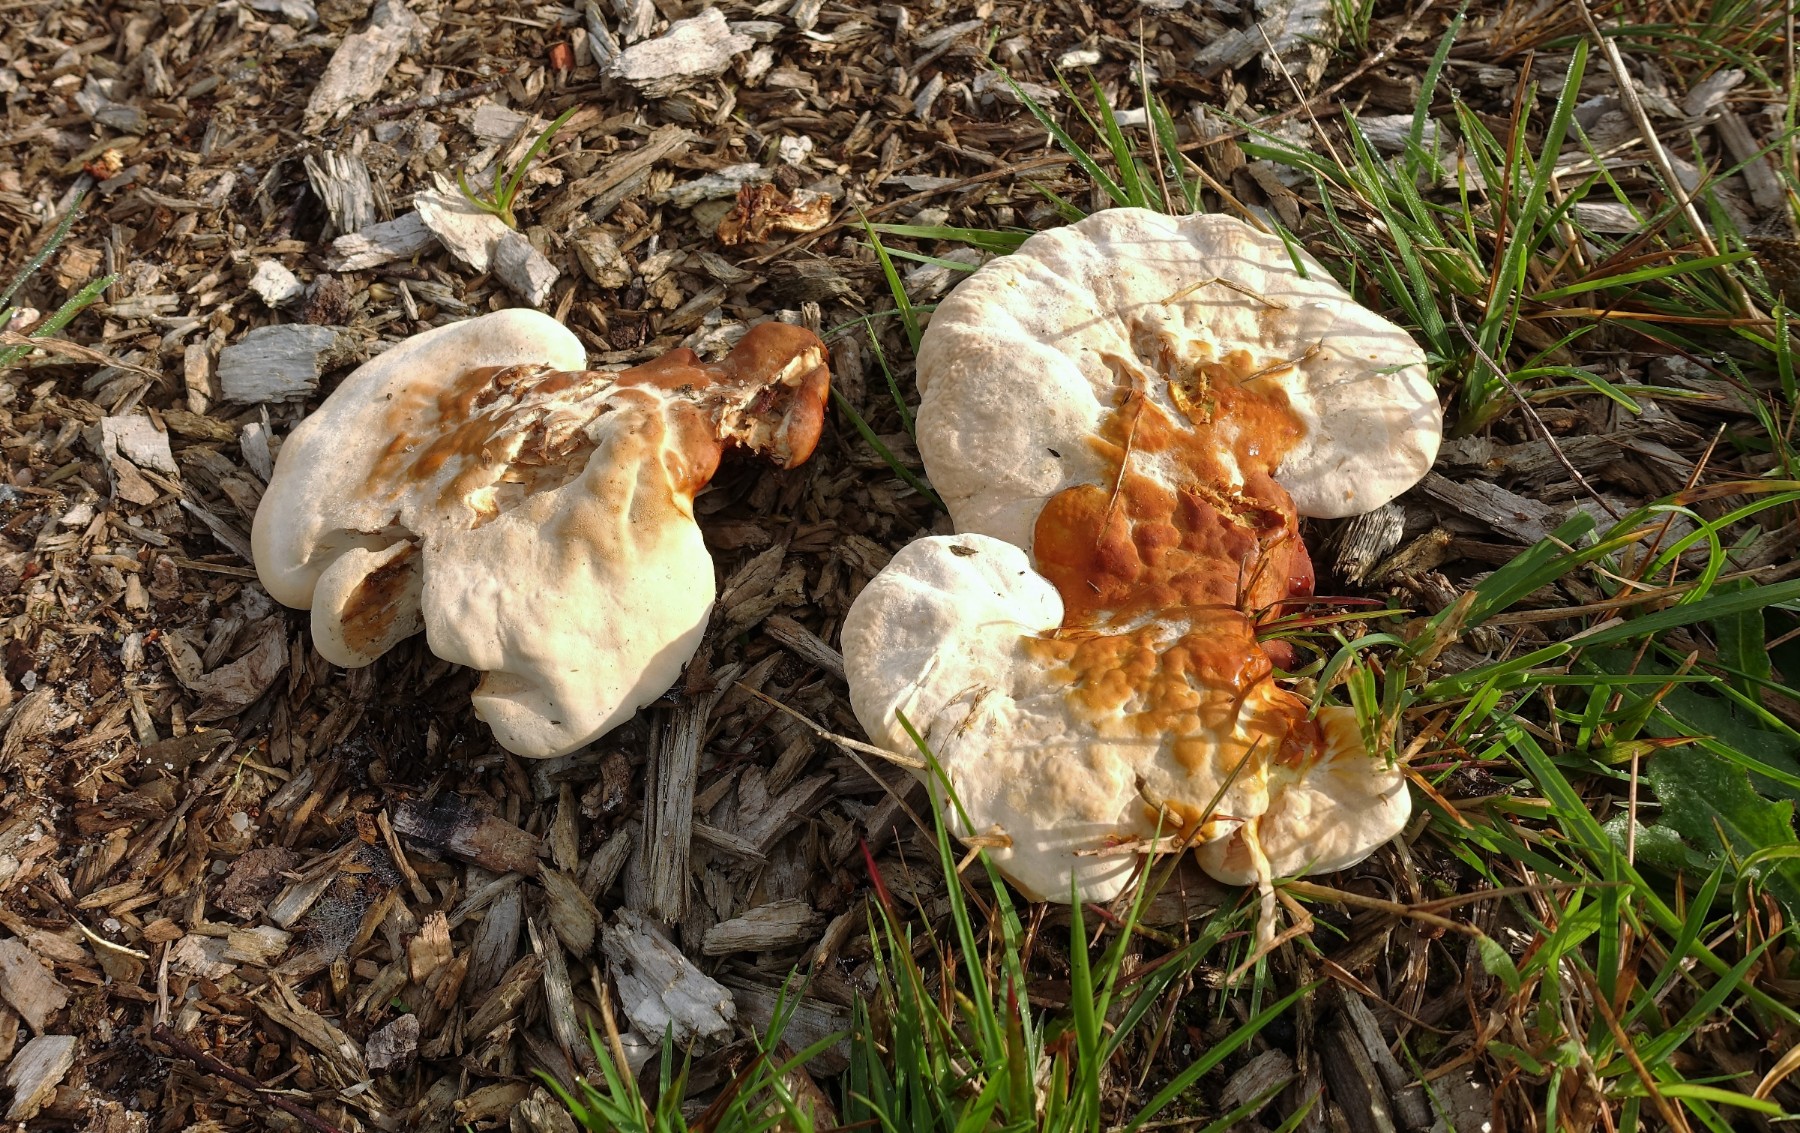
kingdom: Fungi
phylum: Basidiomycota
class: Agaricomycetes
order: Polyporales
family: Polyporaceae
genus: Ganoderma
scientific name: Ganoderma lucidum
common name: skinnende lakporesvamp
